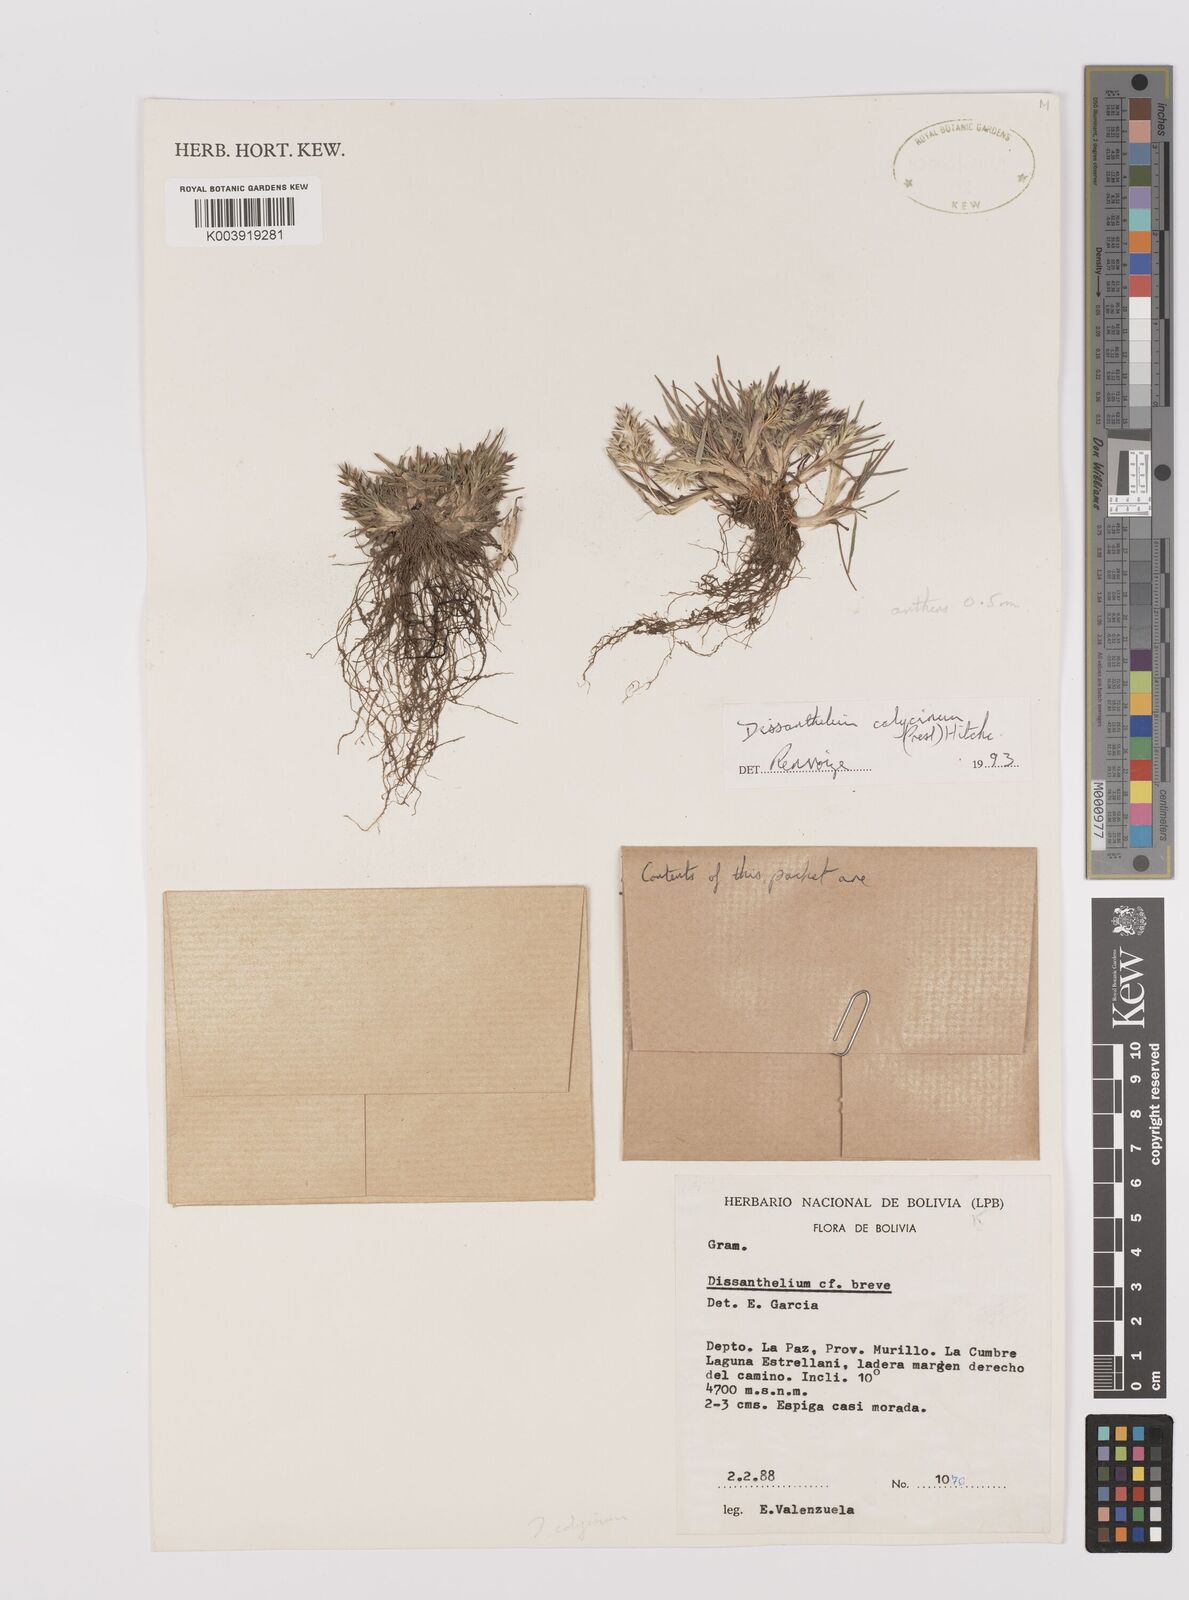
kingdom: Plantae
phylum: Tracheophyta
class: Liliopsida
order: Poales
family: Poaceae
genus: Poa
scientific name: Poa calycina
